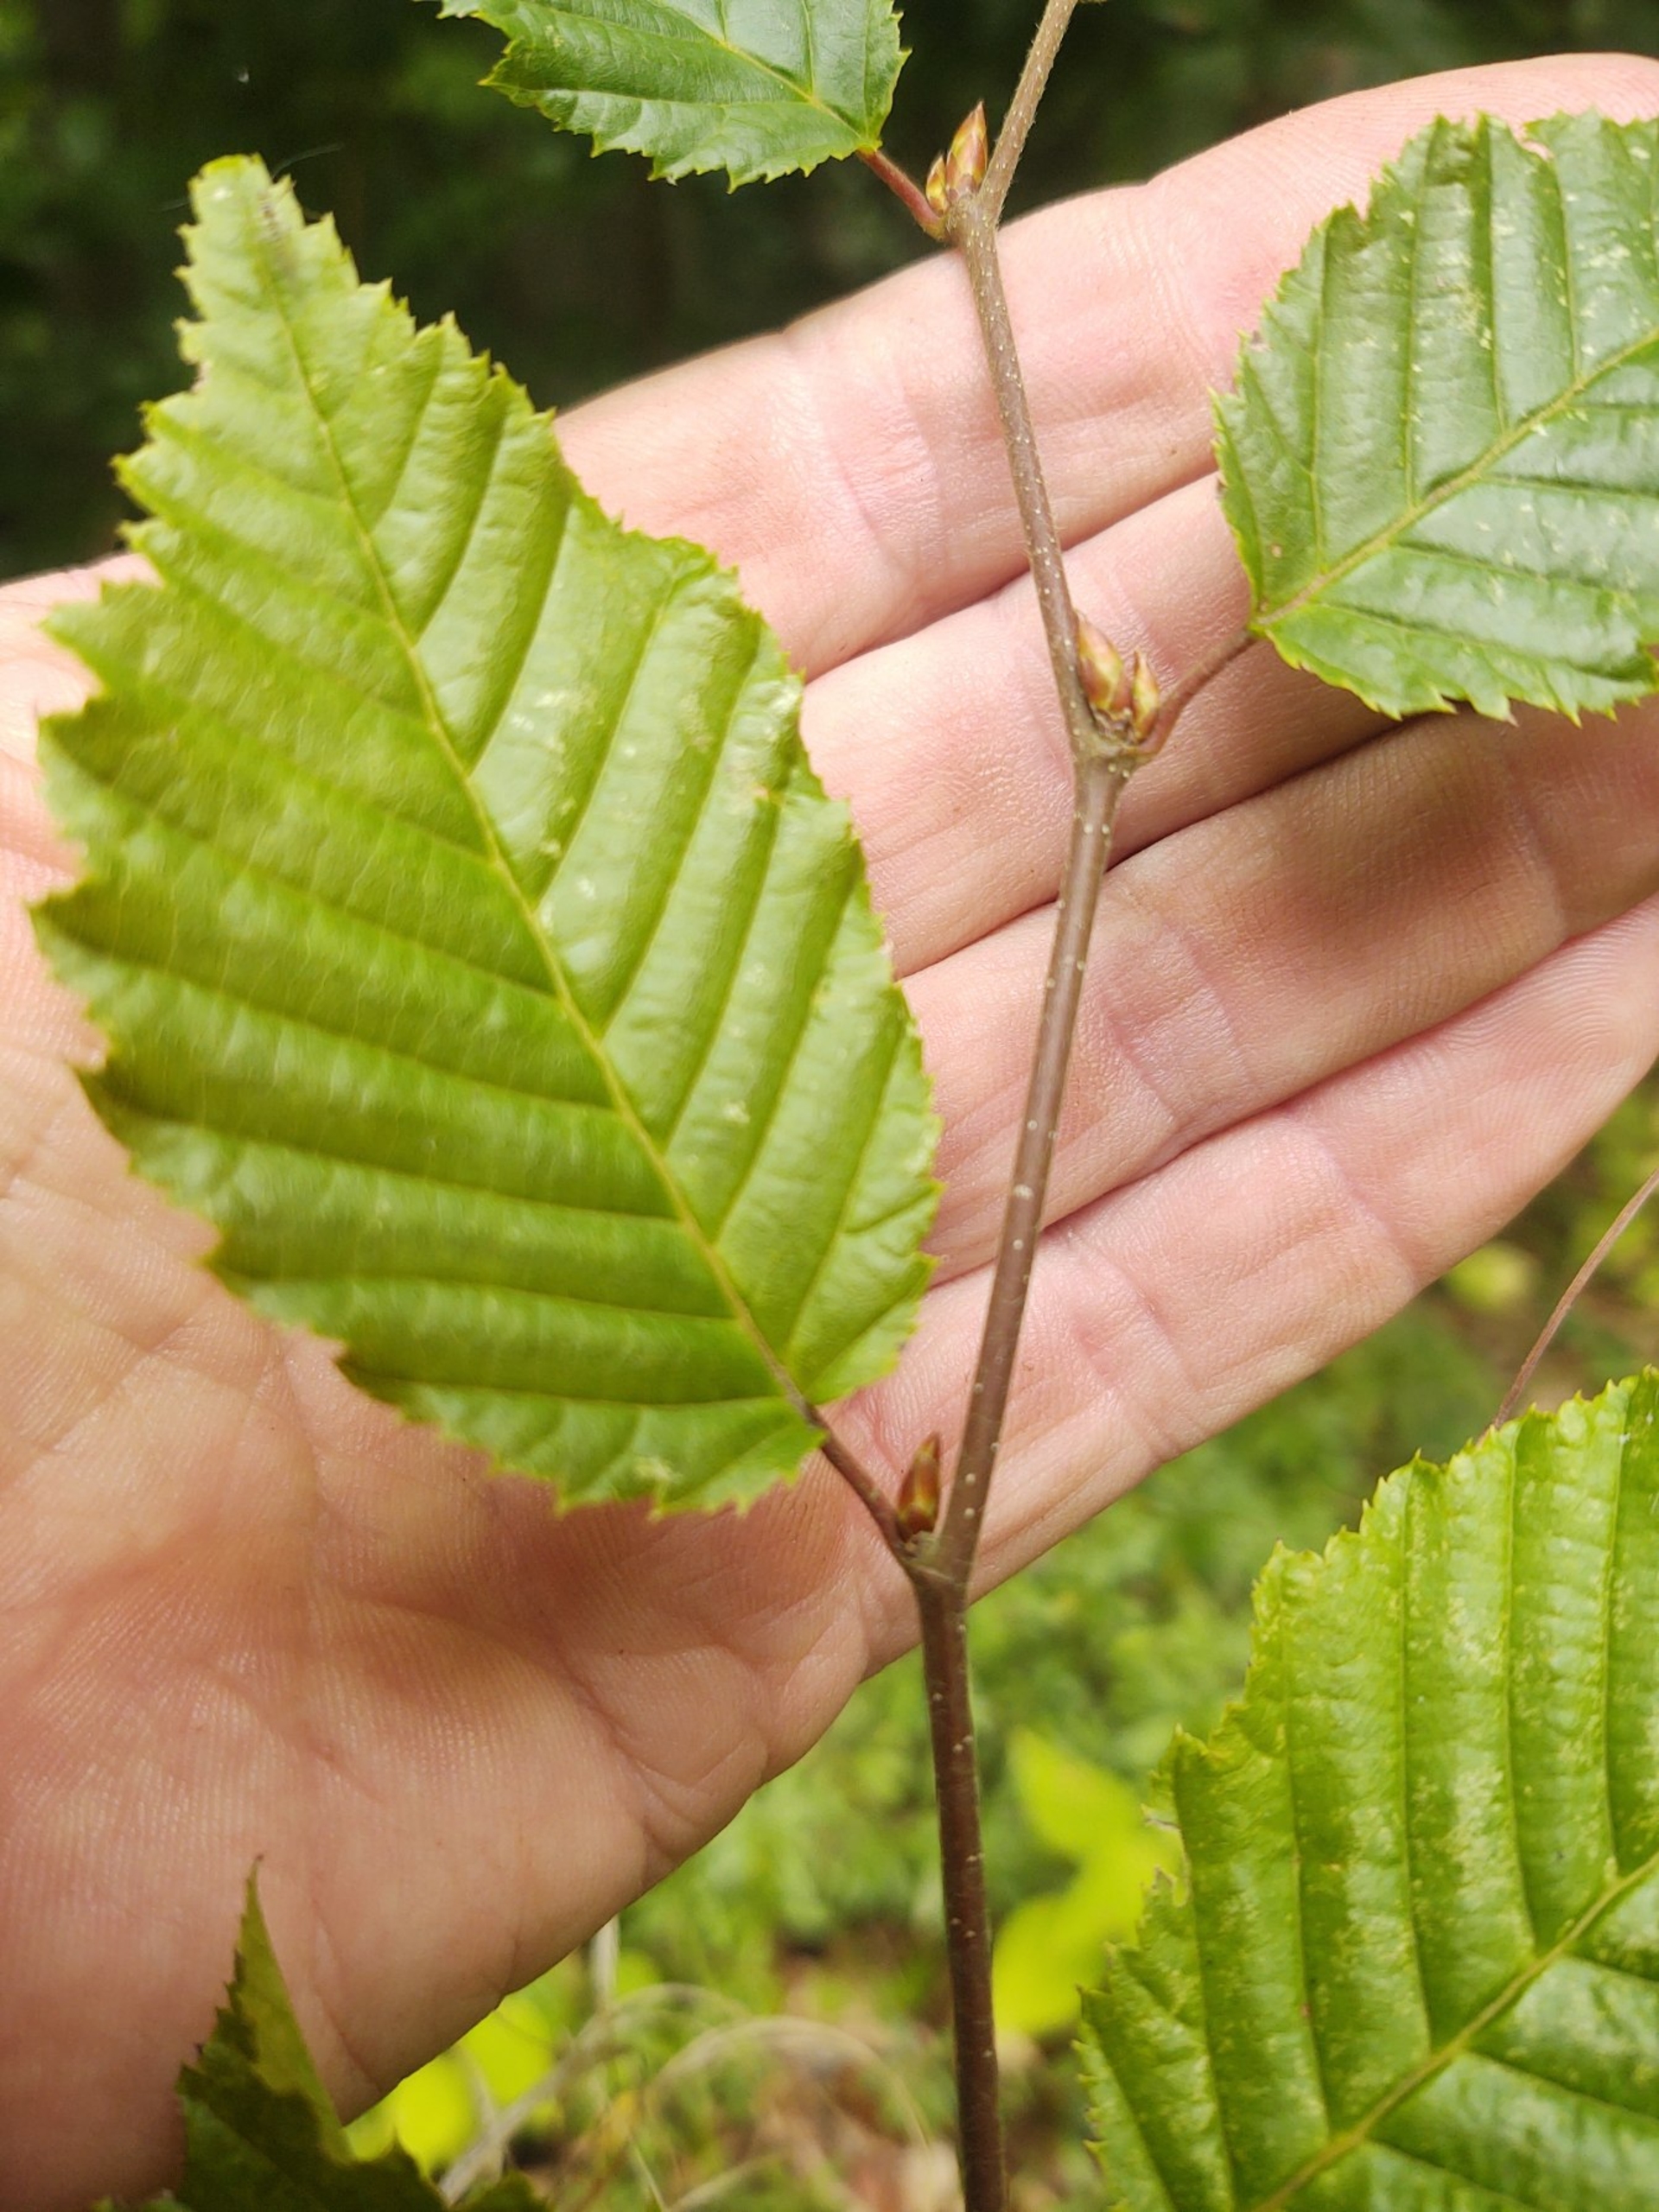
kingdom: Plantae
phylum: Tracheophyta
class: Magnoliopsida
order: Fagales
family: Betulaceae
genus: Carpinus
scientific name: Carpinus betulus
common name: Avnbøg
